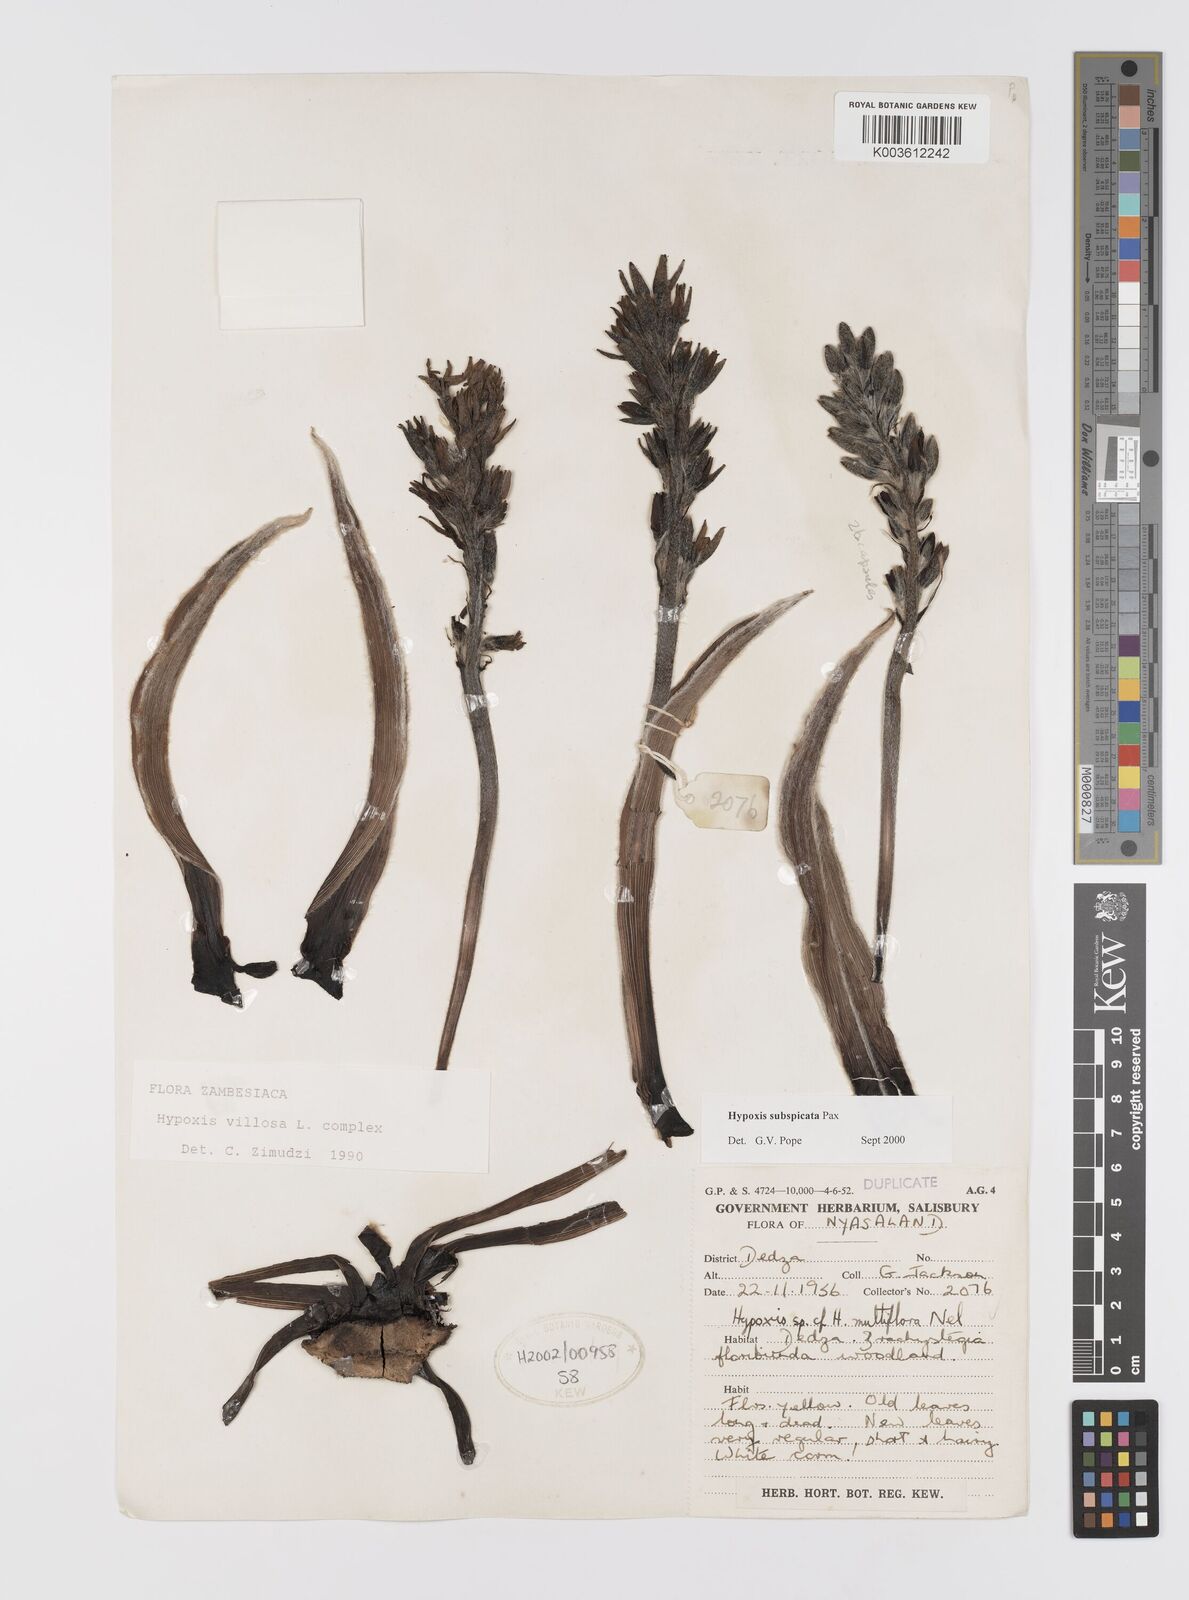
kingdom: Plantae
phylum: Tracheophyta
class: Liliopsida
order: Asparagales
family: Hypoxidaceae
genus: Hypoxis
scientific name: Hypoxis polystachya
